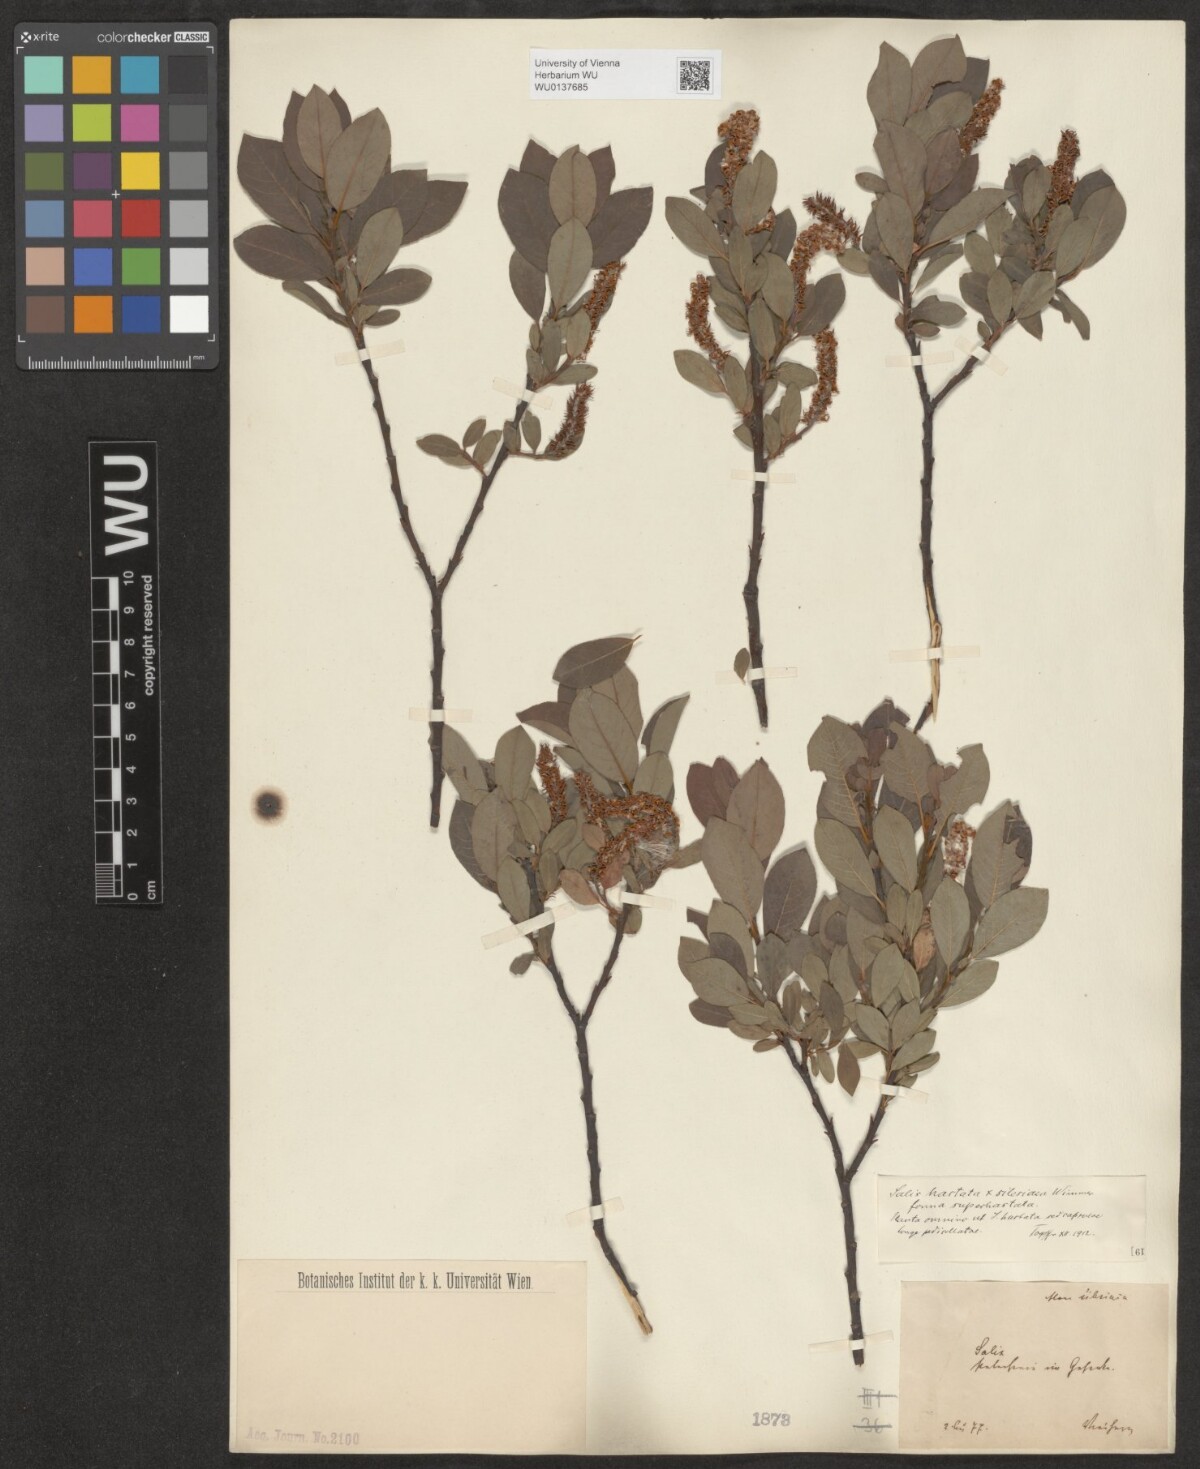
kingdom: Plantae
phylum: Tracheophyta
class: Magnoliopsida
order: Malpighiales
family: Salicaceae
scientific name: Salicaceae
